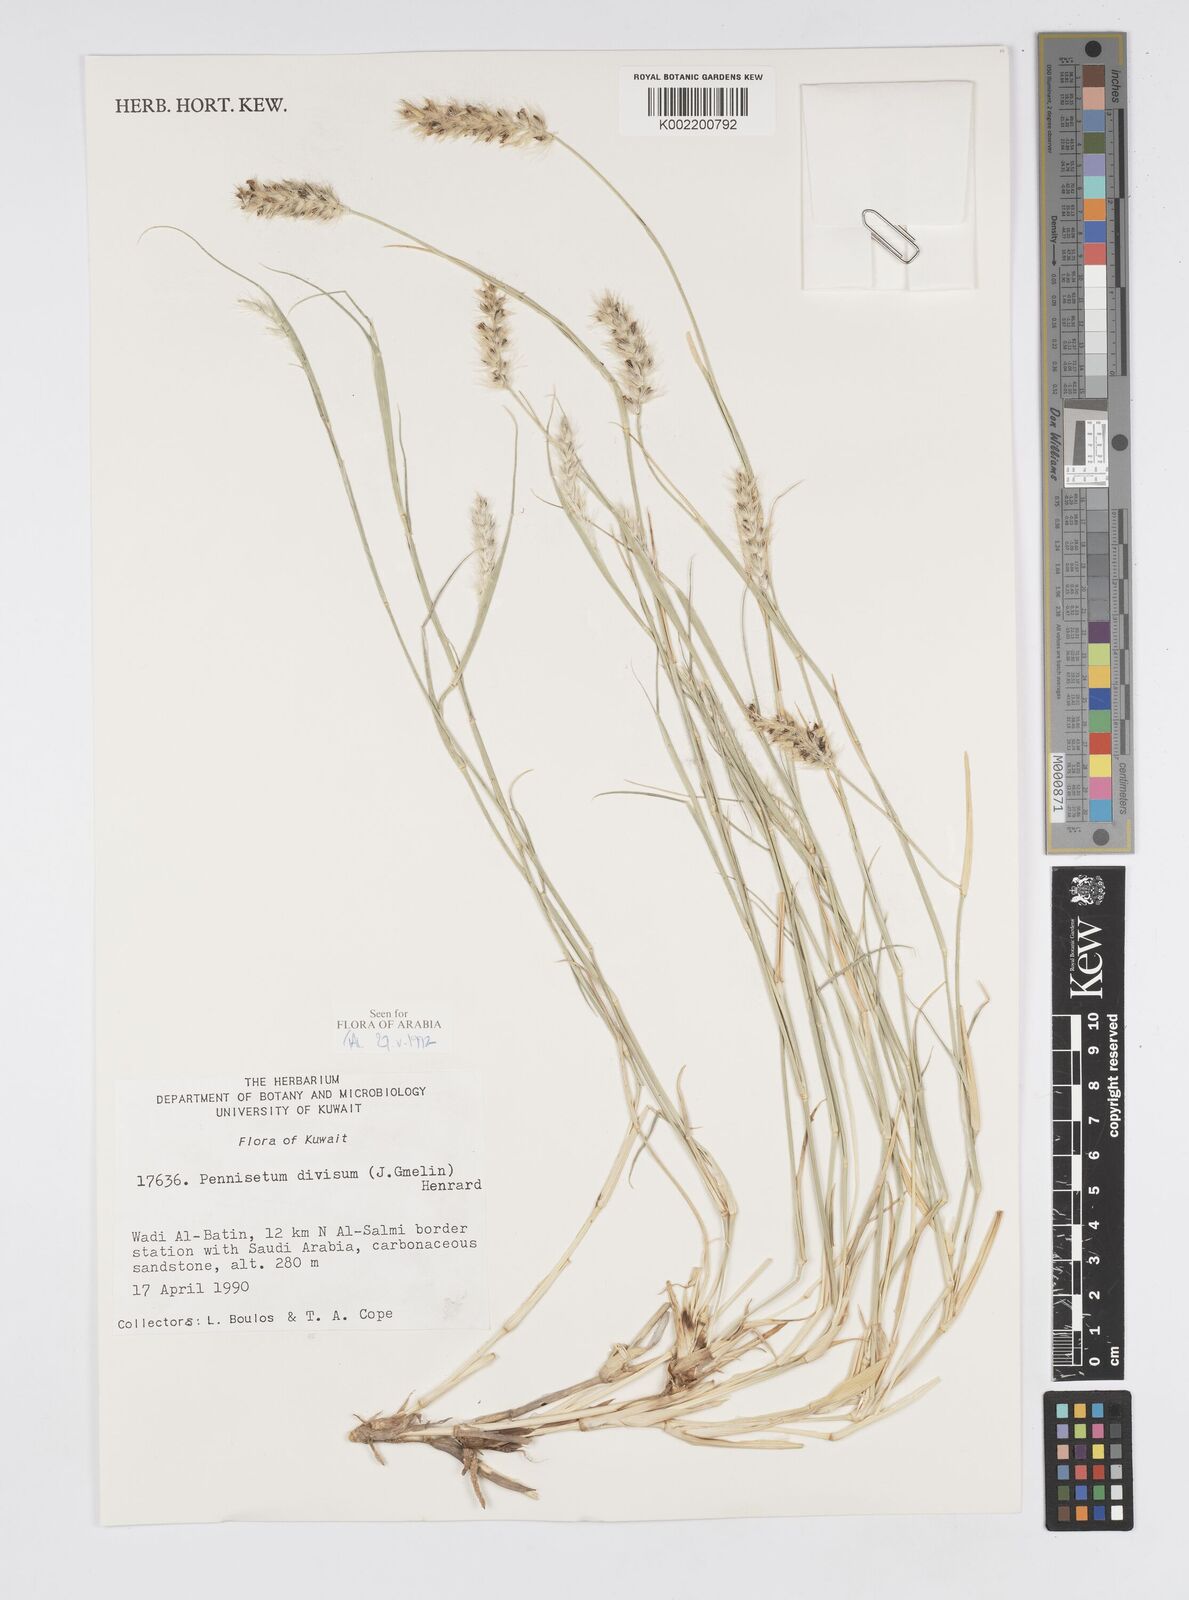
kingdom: Plantae
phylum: Tracheophyta
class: Liliopsida
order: Poales
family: Poaceae
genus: Cenchrus
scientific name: Cenchrus divisus
